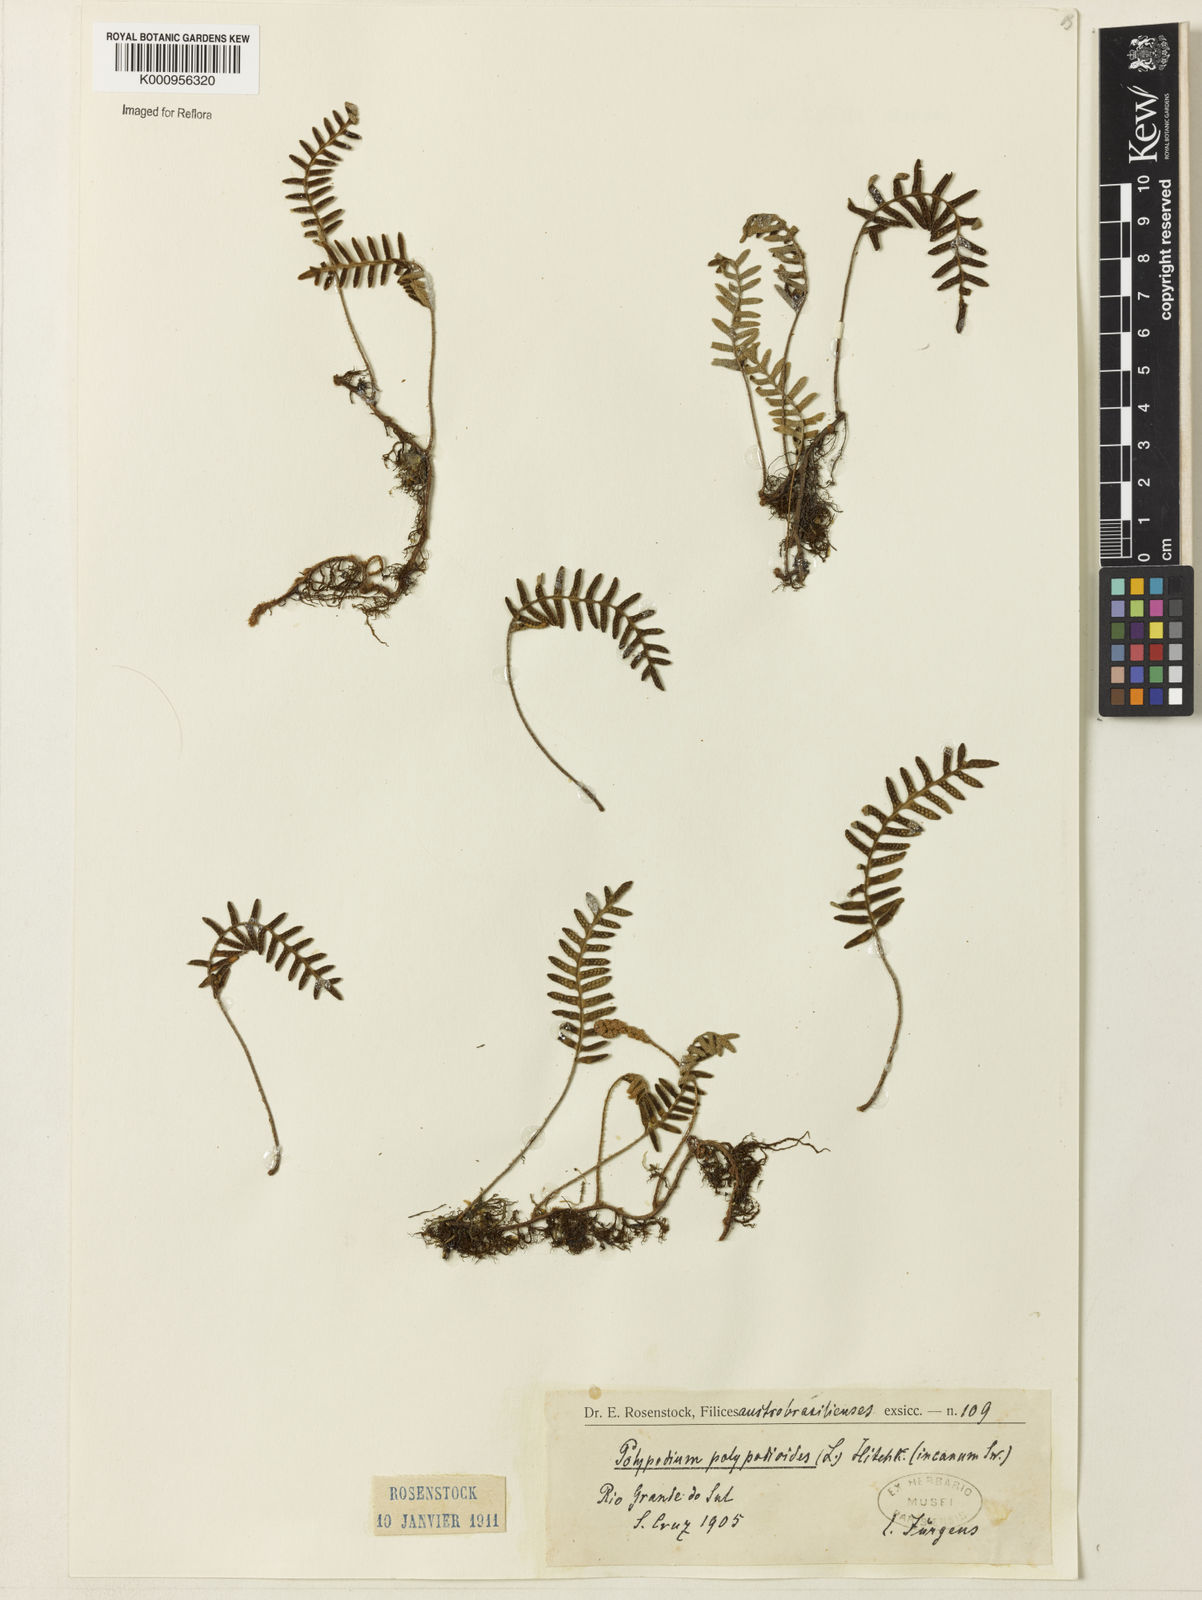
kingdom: Plantae
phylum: Tracheophyta
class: Polypodiopsida
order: Polypodiales
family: Polypodiaceae
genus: Pleopeltis
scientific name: Pleopeltis polypodioides
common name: Resurrection fern
